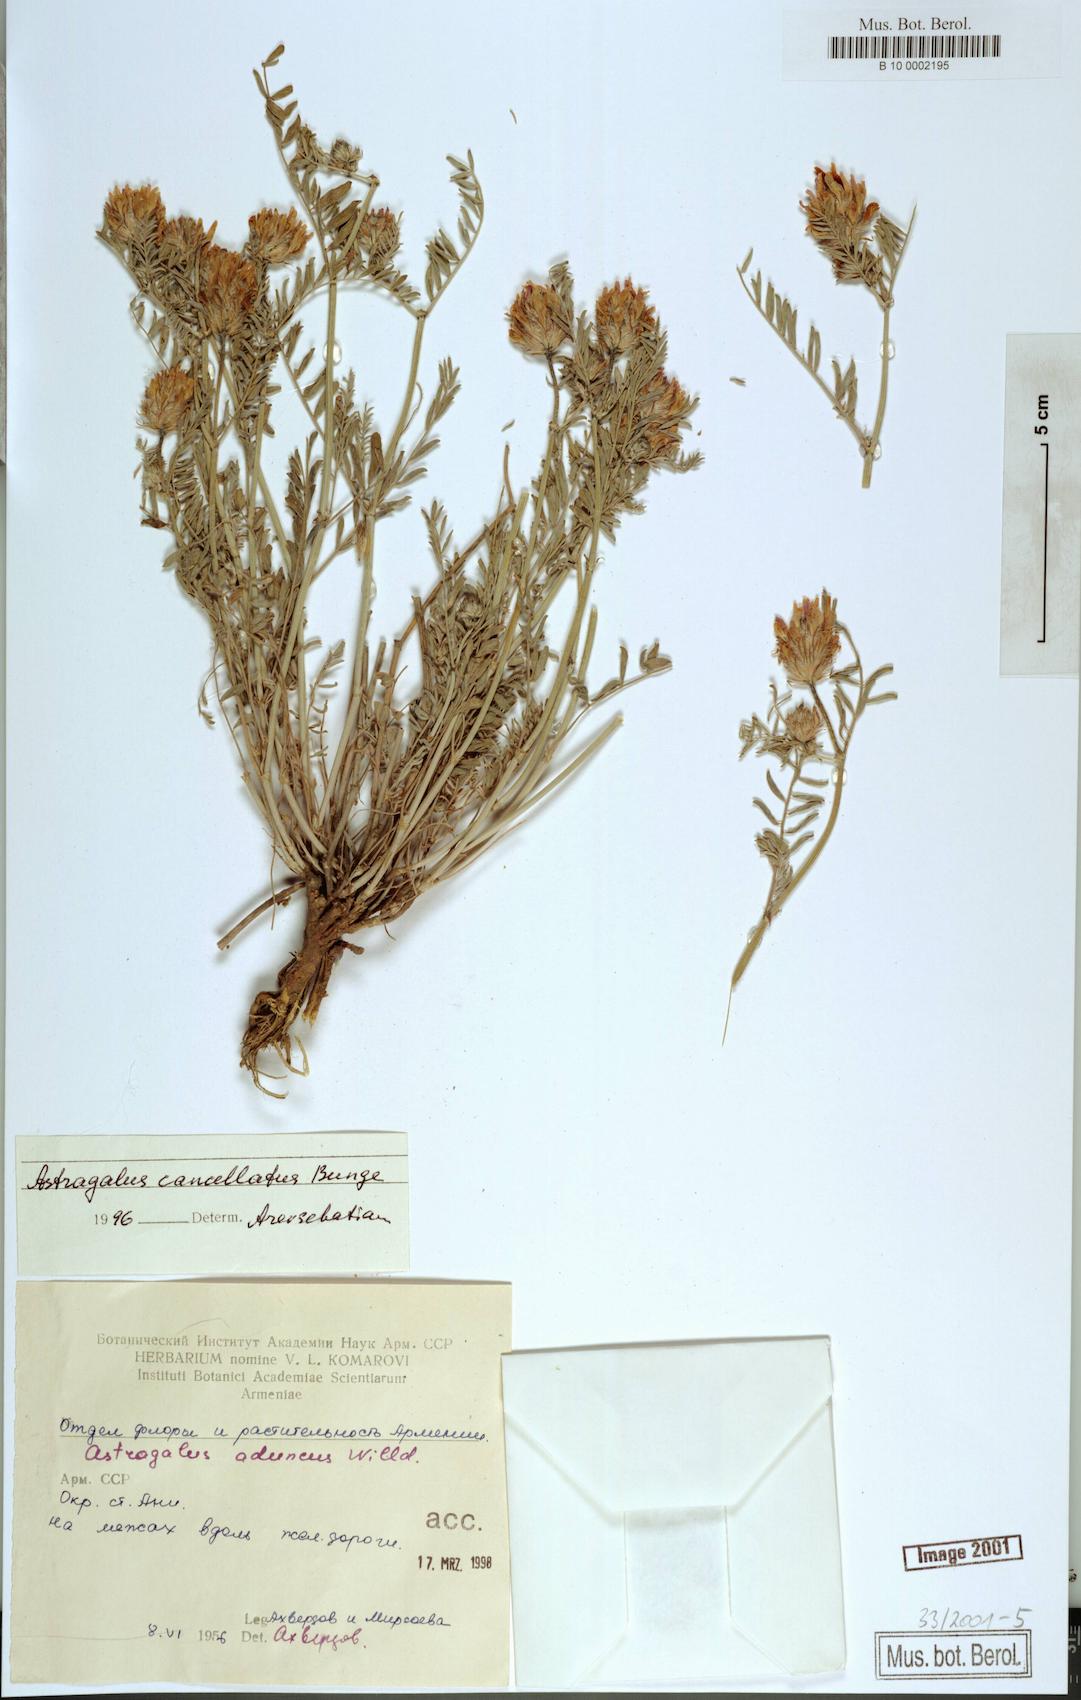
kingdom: Plantae
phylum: Tracheophyta
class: Magnoliopsida
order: Fabales
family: Fabaceae
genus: Astragalus
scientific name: Astragalus cancellatus
